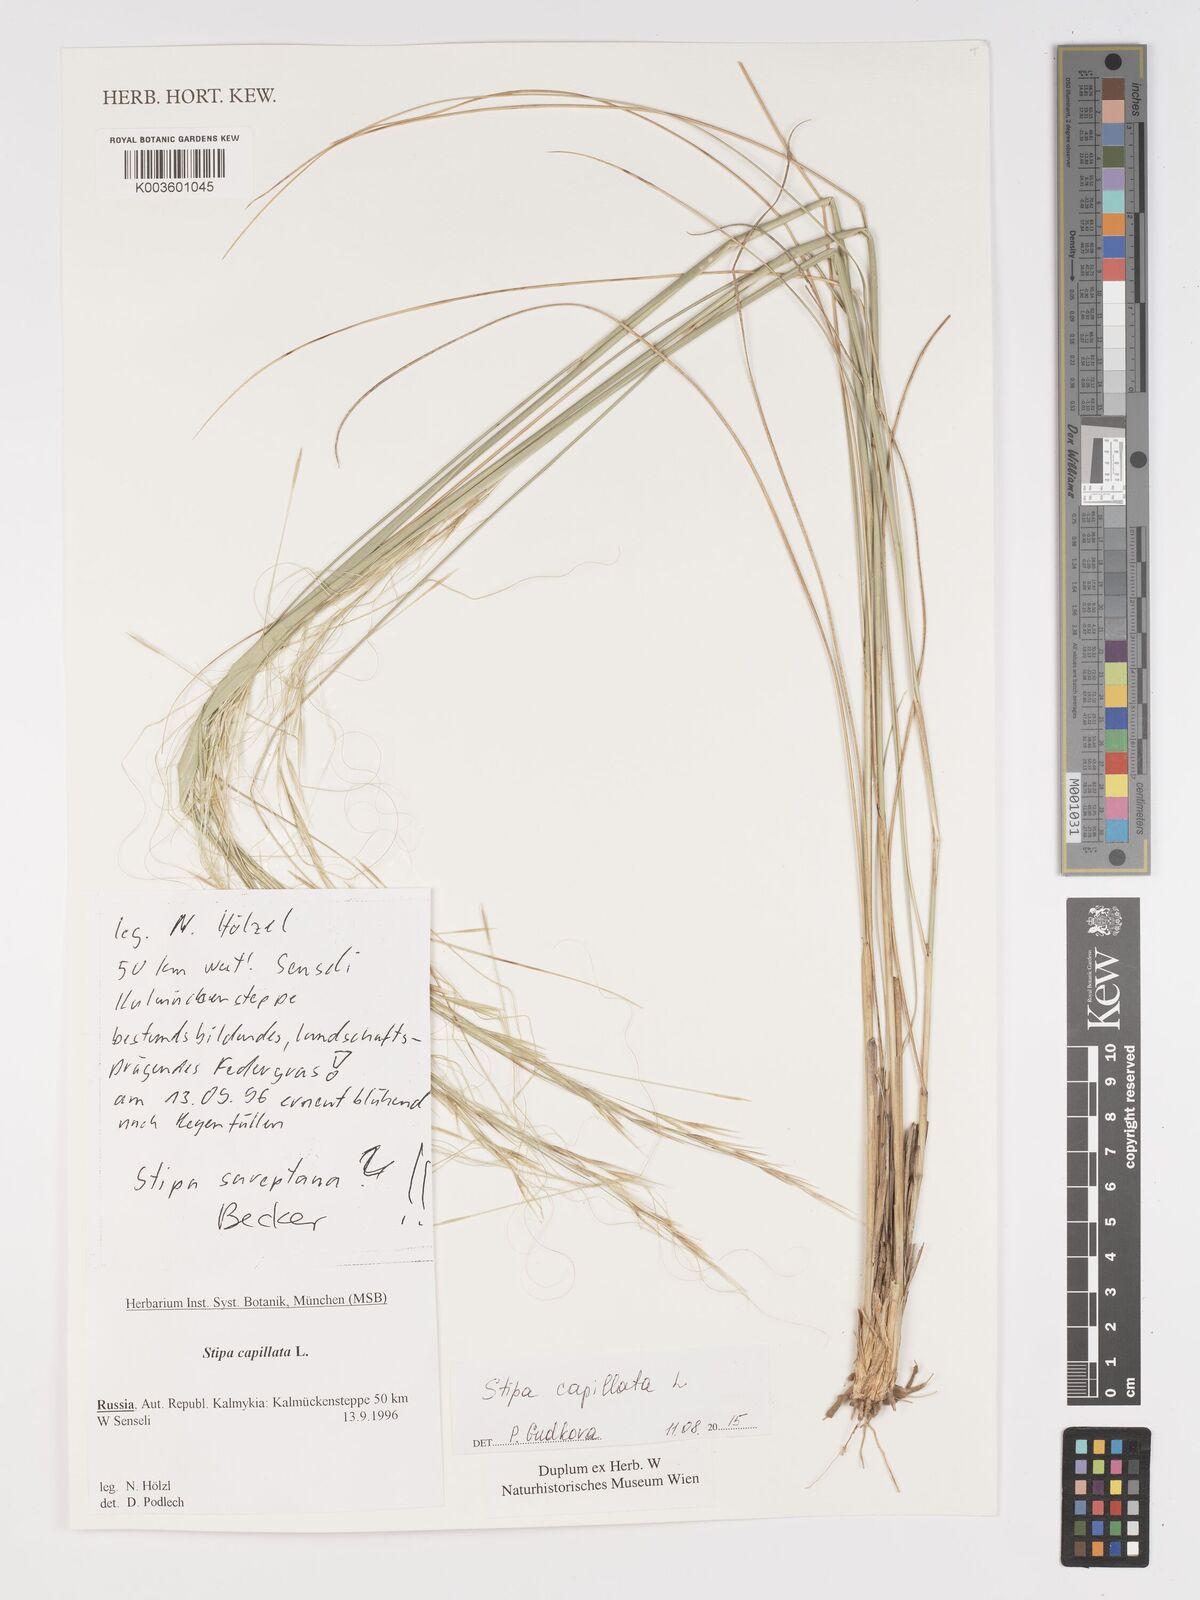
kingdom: Plantae
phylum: Tracheophyta
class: Liliopsida
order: Poales
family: Poaceae
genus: Stipa
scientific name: Stipa capillata
